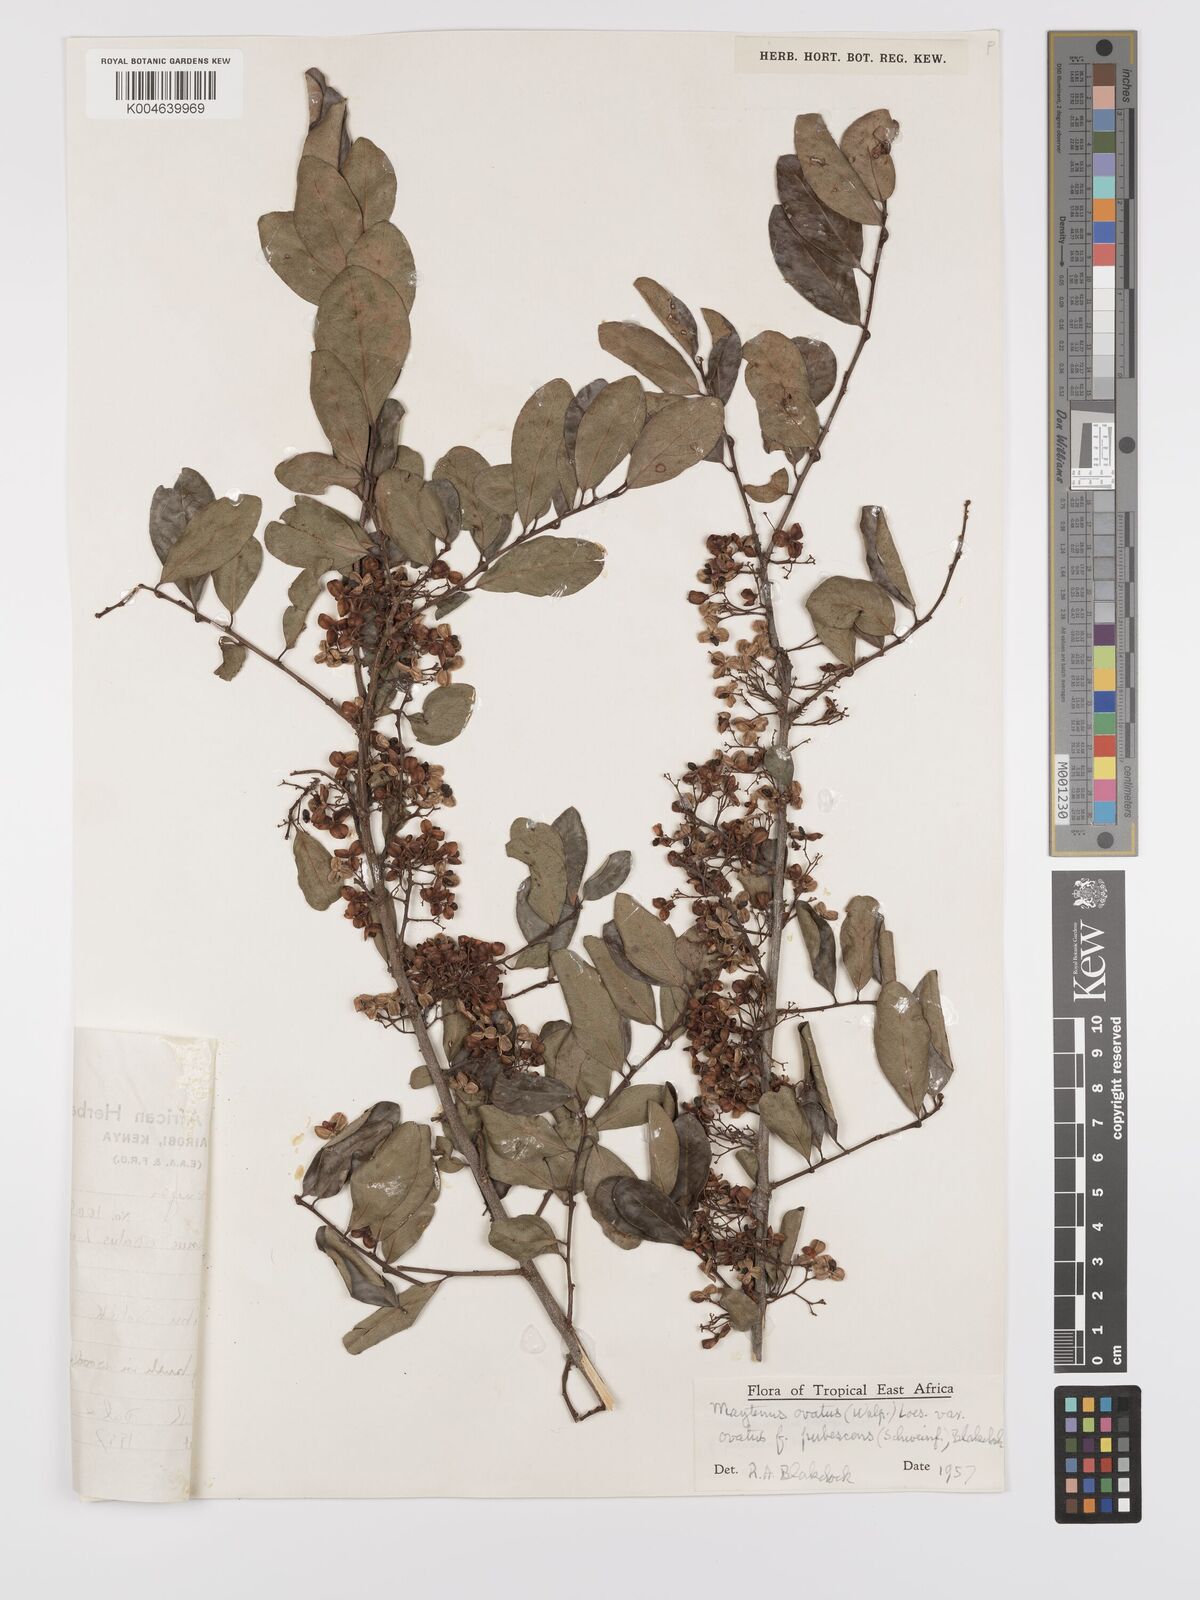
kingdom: Plantae
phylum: Tracheophyta
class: Magnoliopsida
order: Celastrales
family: Celastraceae
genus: Gymnosporia
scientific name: Gymnosporia arbutifolia
